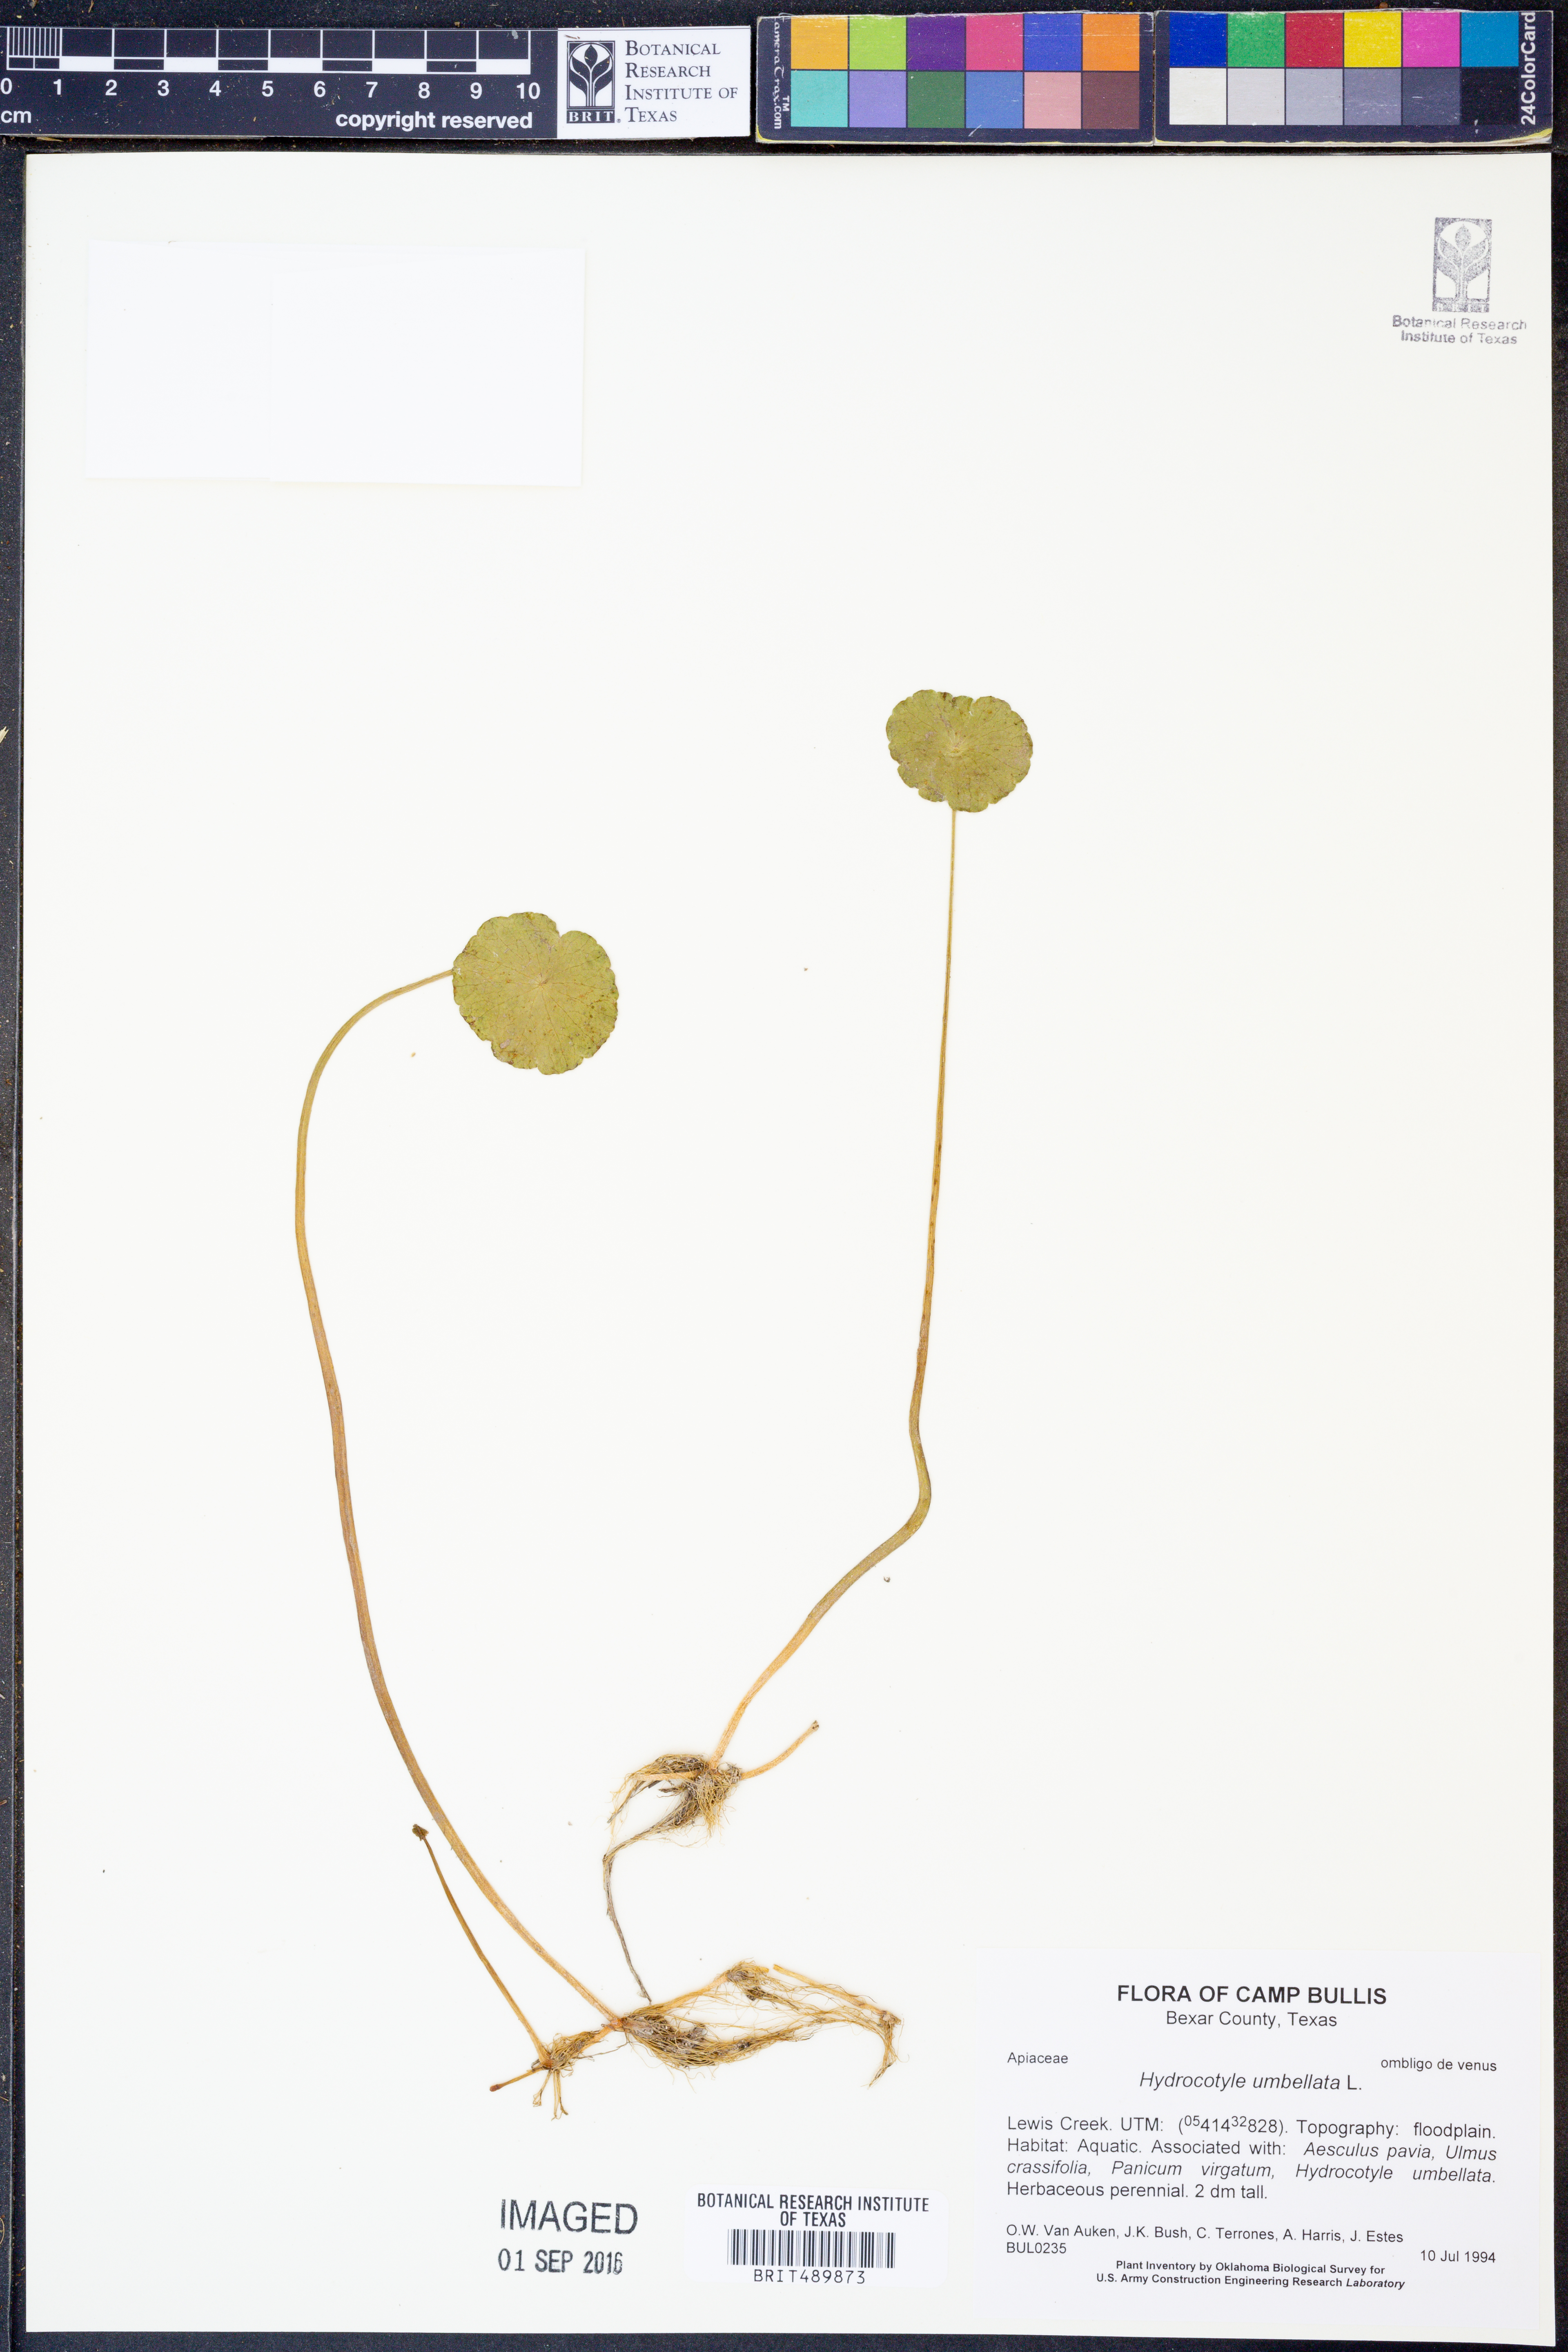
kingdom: Plantae
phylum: Tracheophyta
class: Magnoliopsida
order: Apiales
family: Araliaceae
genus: Hydrocotyle
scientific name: Hydrocotyle umbellata
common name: Water pennywort
